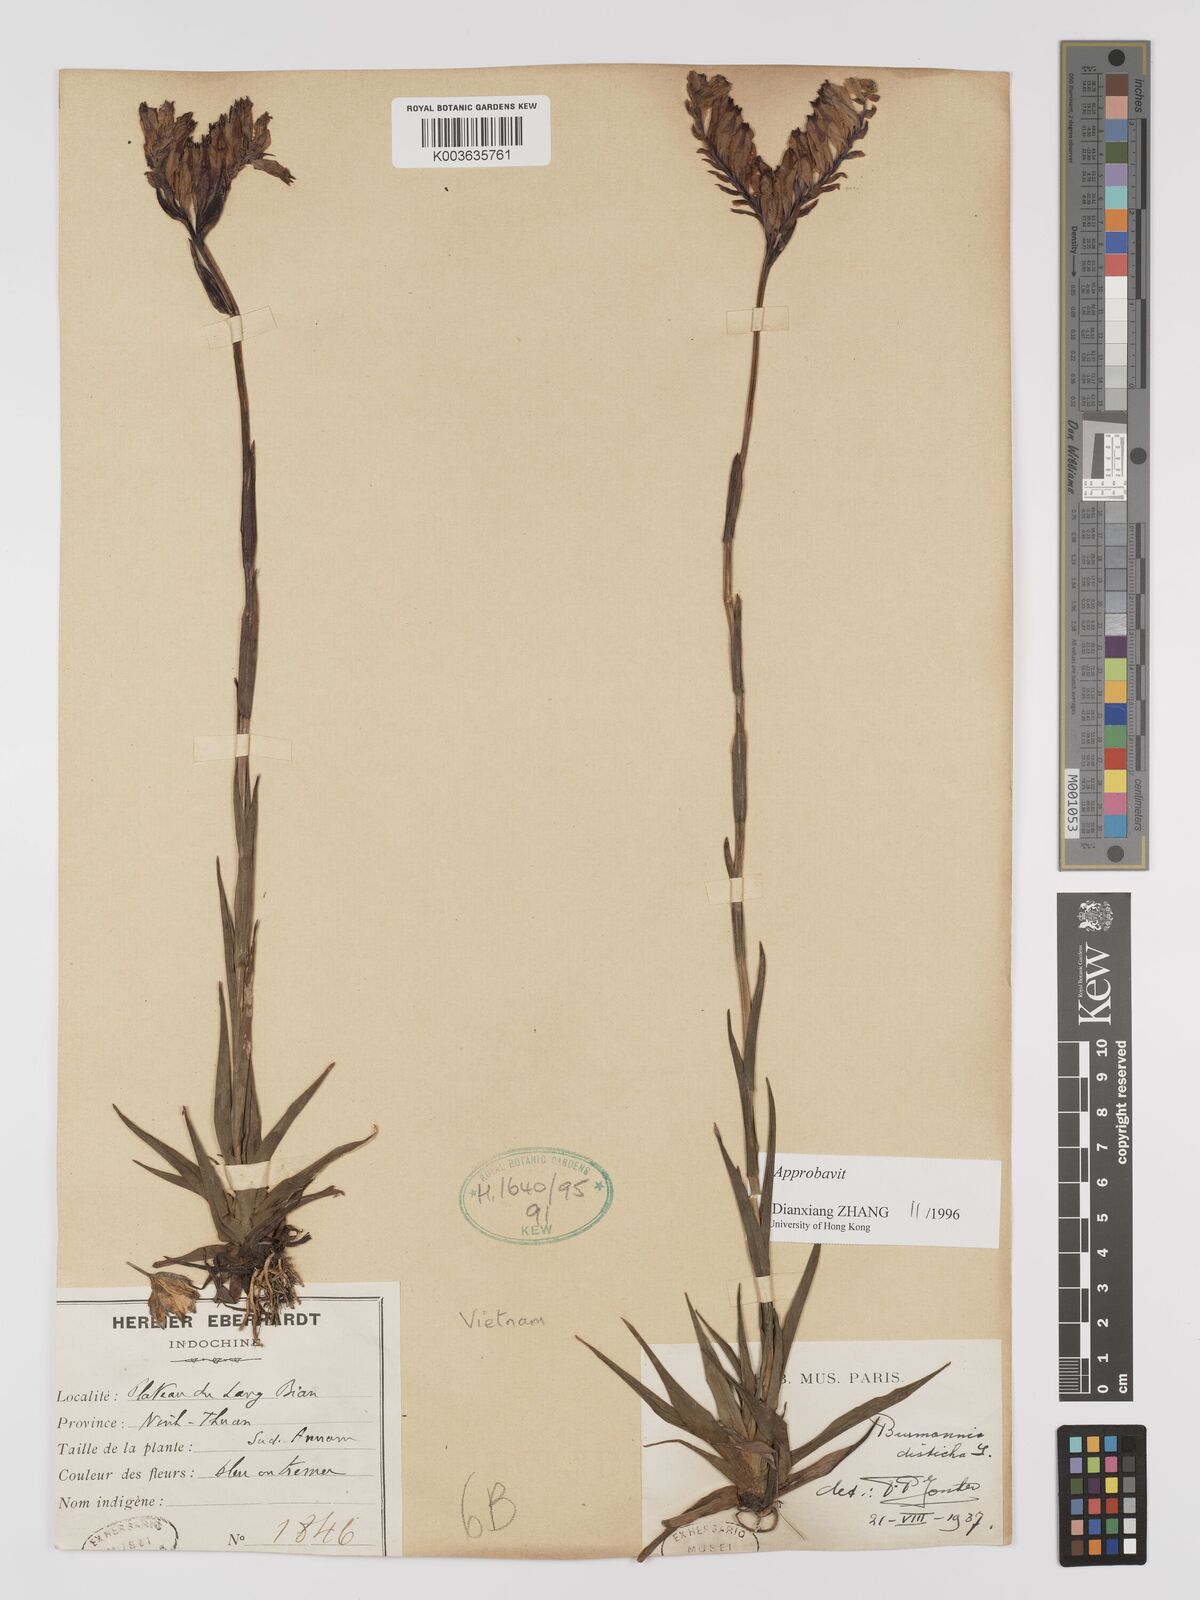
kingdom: Plantae
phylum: Tracheophyta
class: Liliopsida
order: Dioscoreales
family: Burmanniaceae
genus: Burmannia
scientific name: Burmannia disticha
